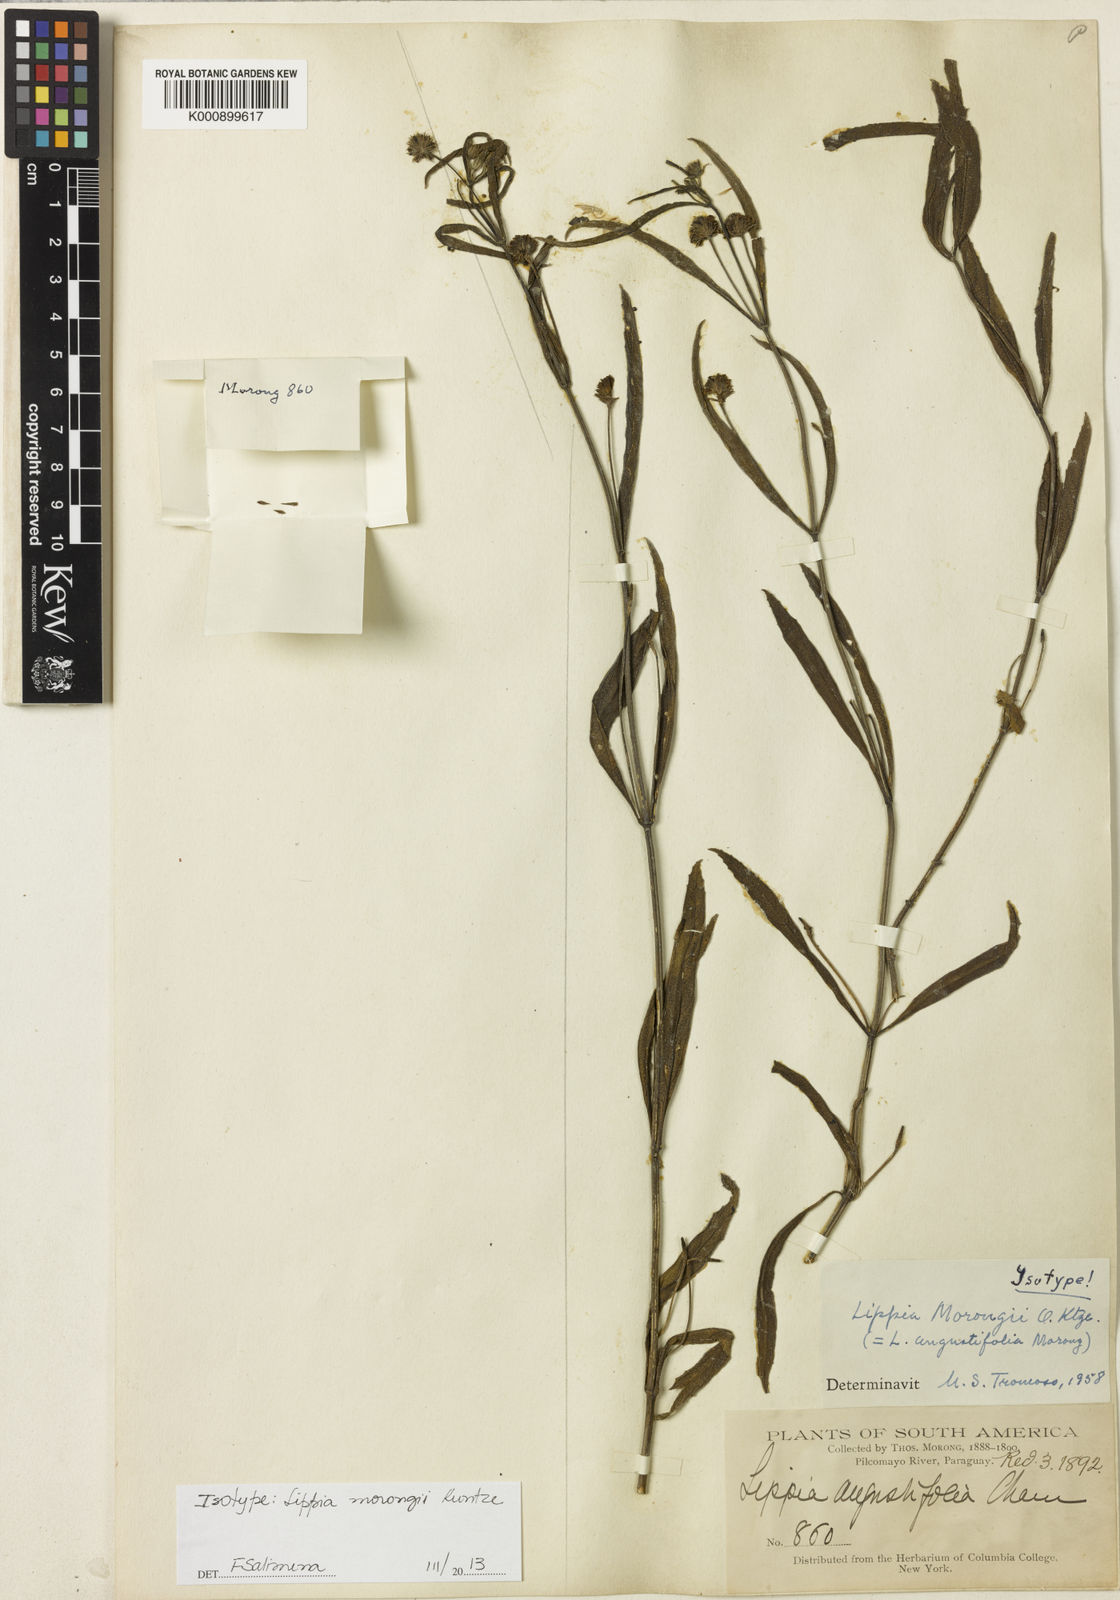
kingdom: Plantae
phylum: Tracheophyta
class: Magnoliopsida
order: Lamiales
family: Verbenaceae
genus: Lippia
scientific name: Lippia turnerifolia
